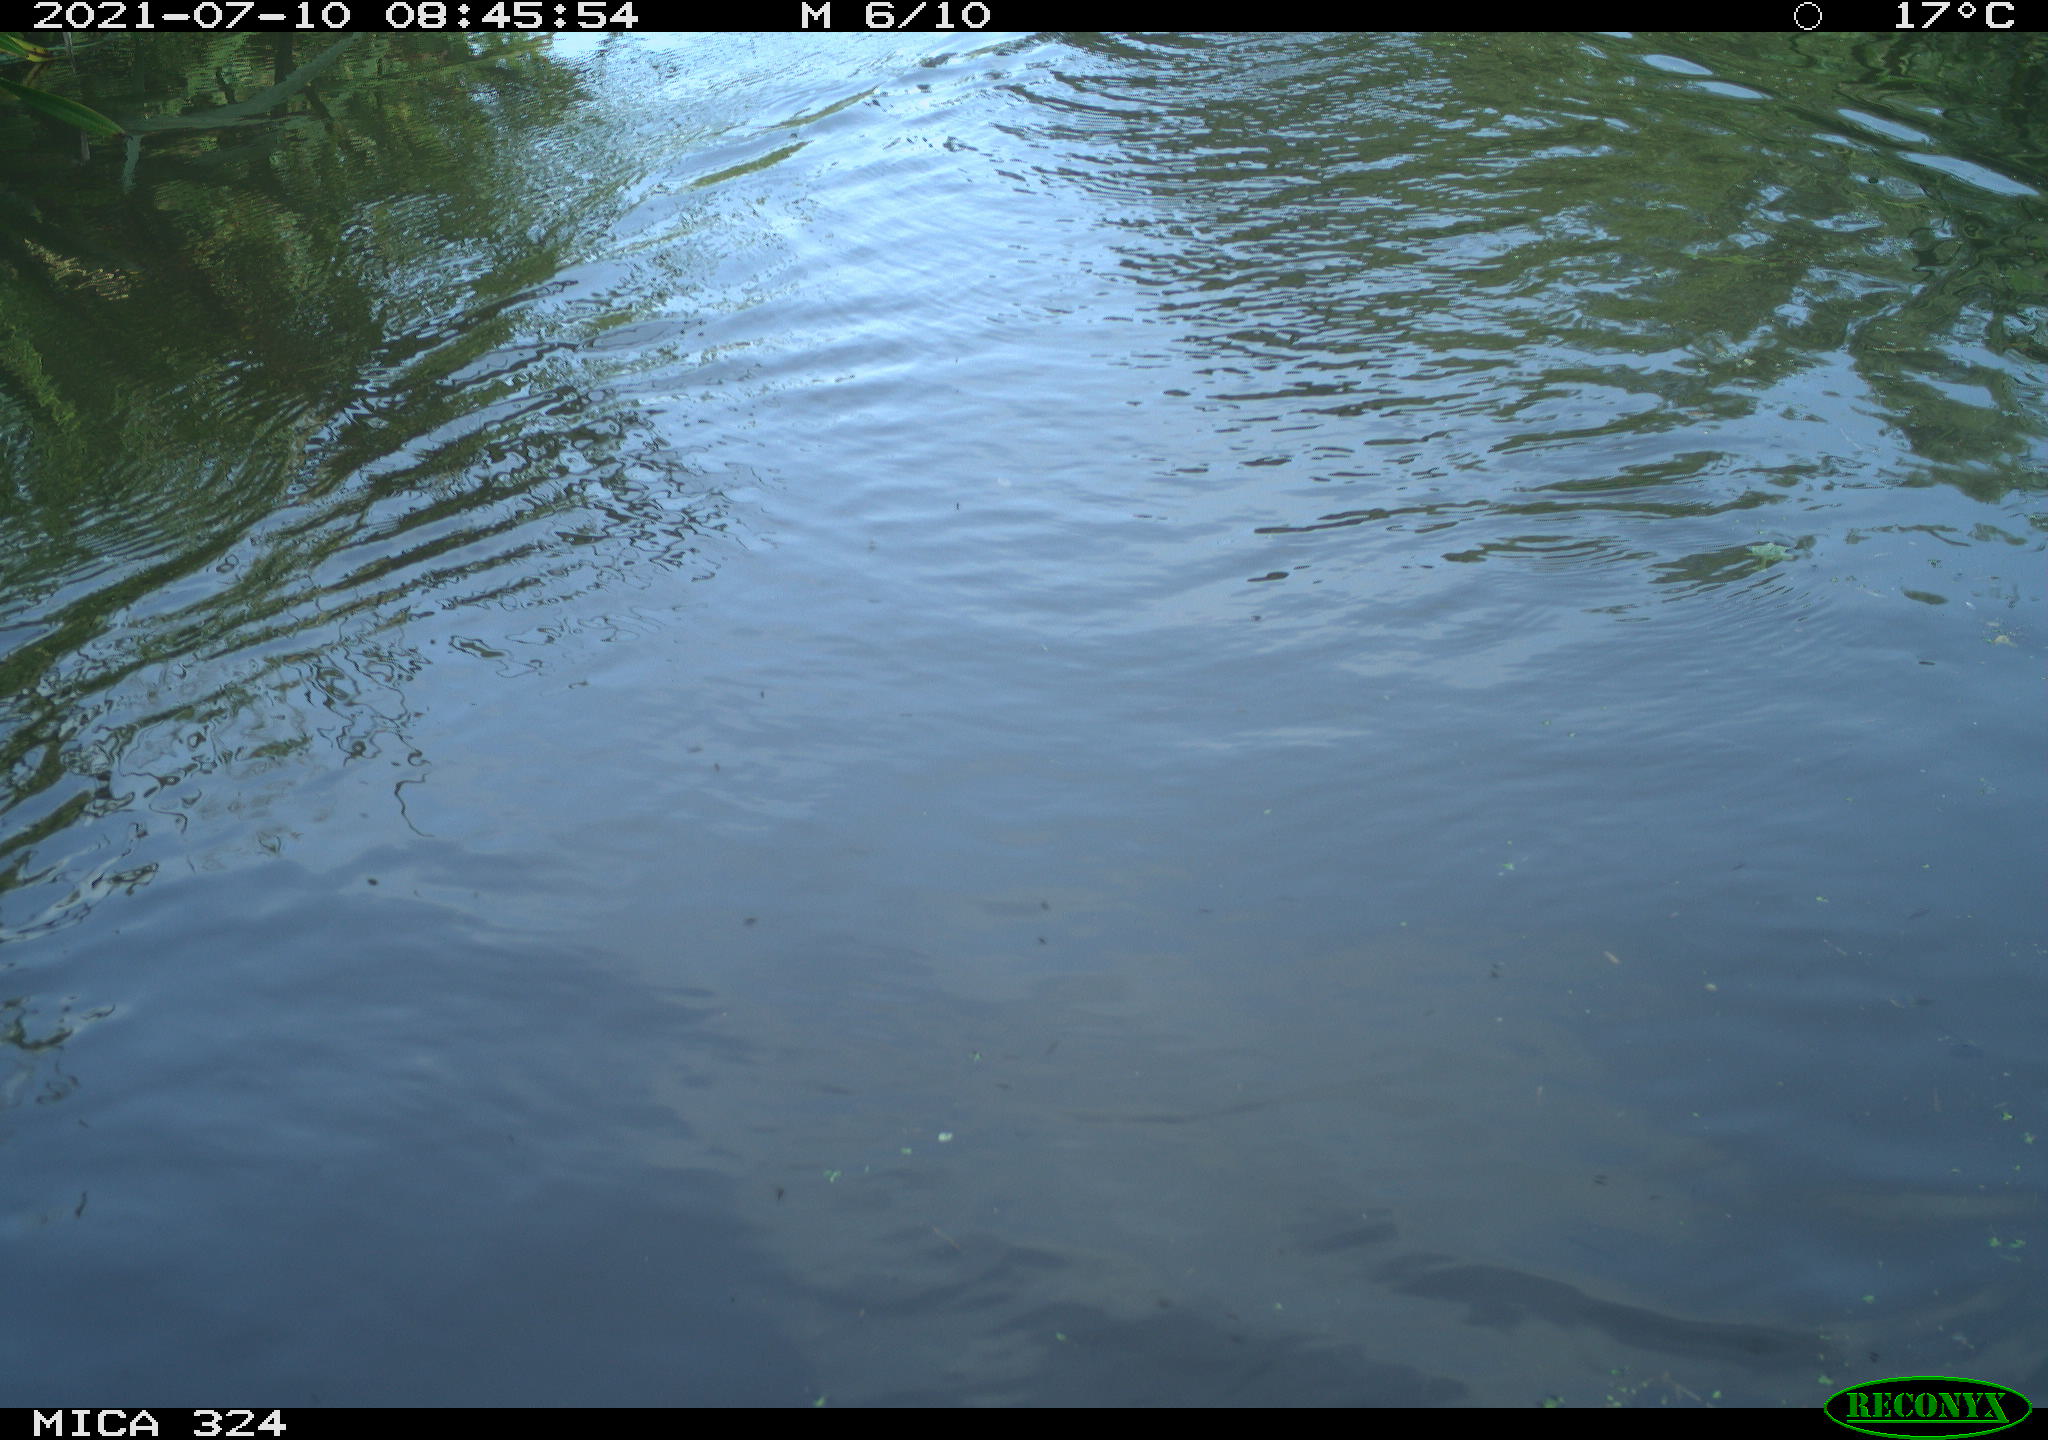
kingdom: Animalia
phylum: Chordata
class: Mammalia
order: Rodentia
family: Cricetidae
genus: Ondatra
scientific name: Ondatra zibethicus
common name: Muskrat
